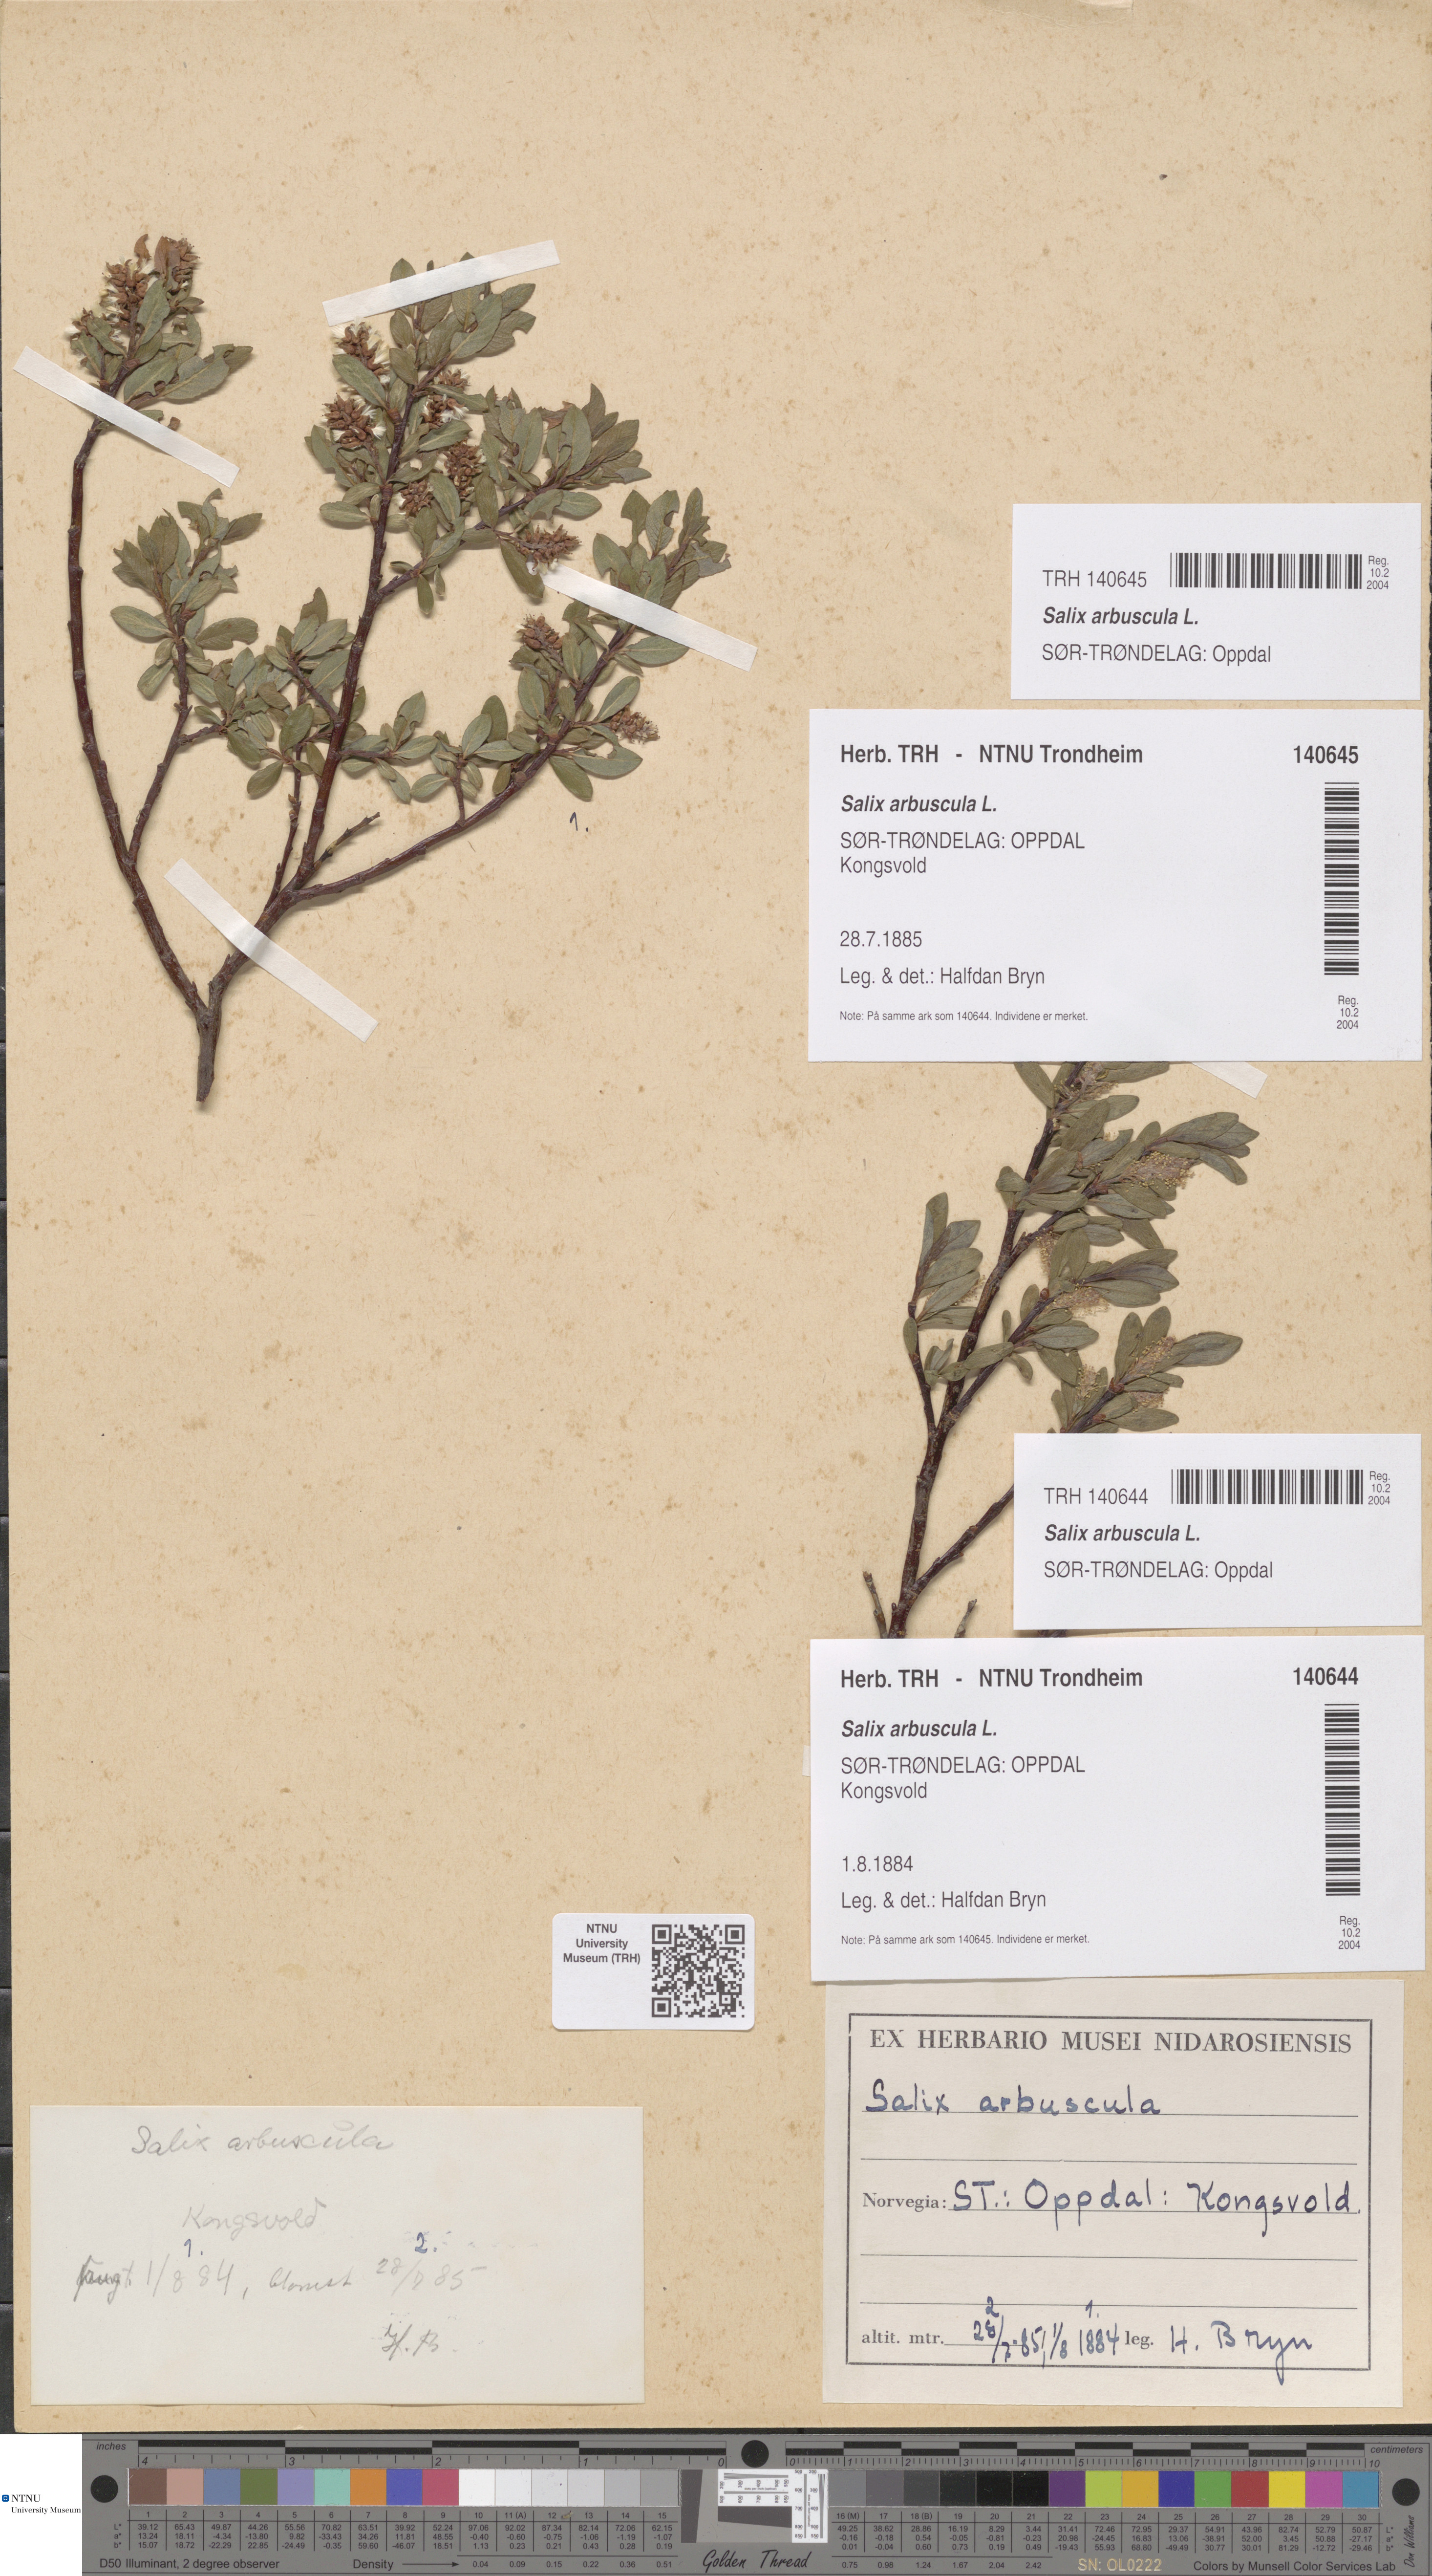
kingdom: Plantae
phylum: Tracheophyta
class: Magnoliopsida
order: Malpighiales
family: Salicaceae
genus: Salix
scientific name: Salix arbuscula
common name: Mountain willow
